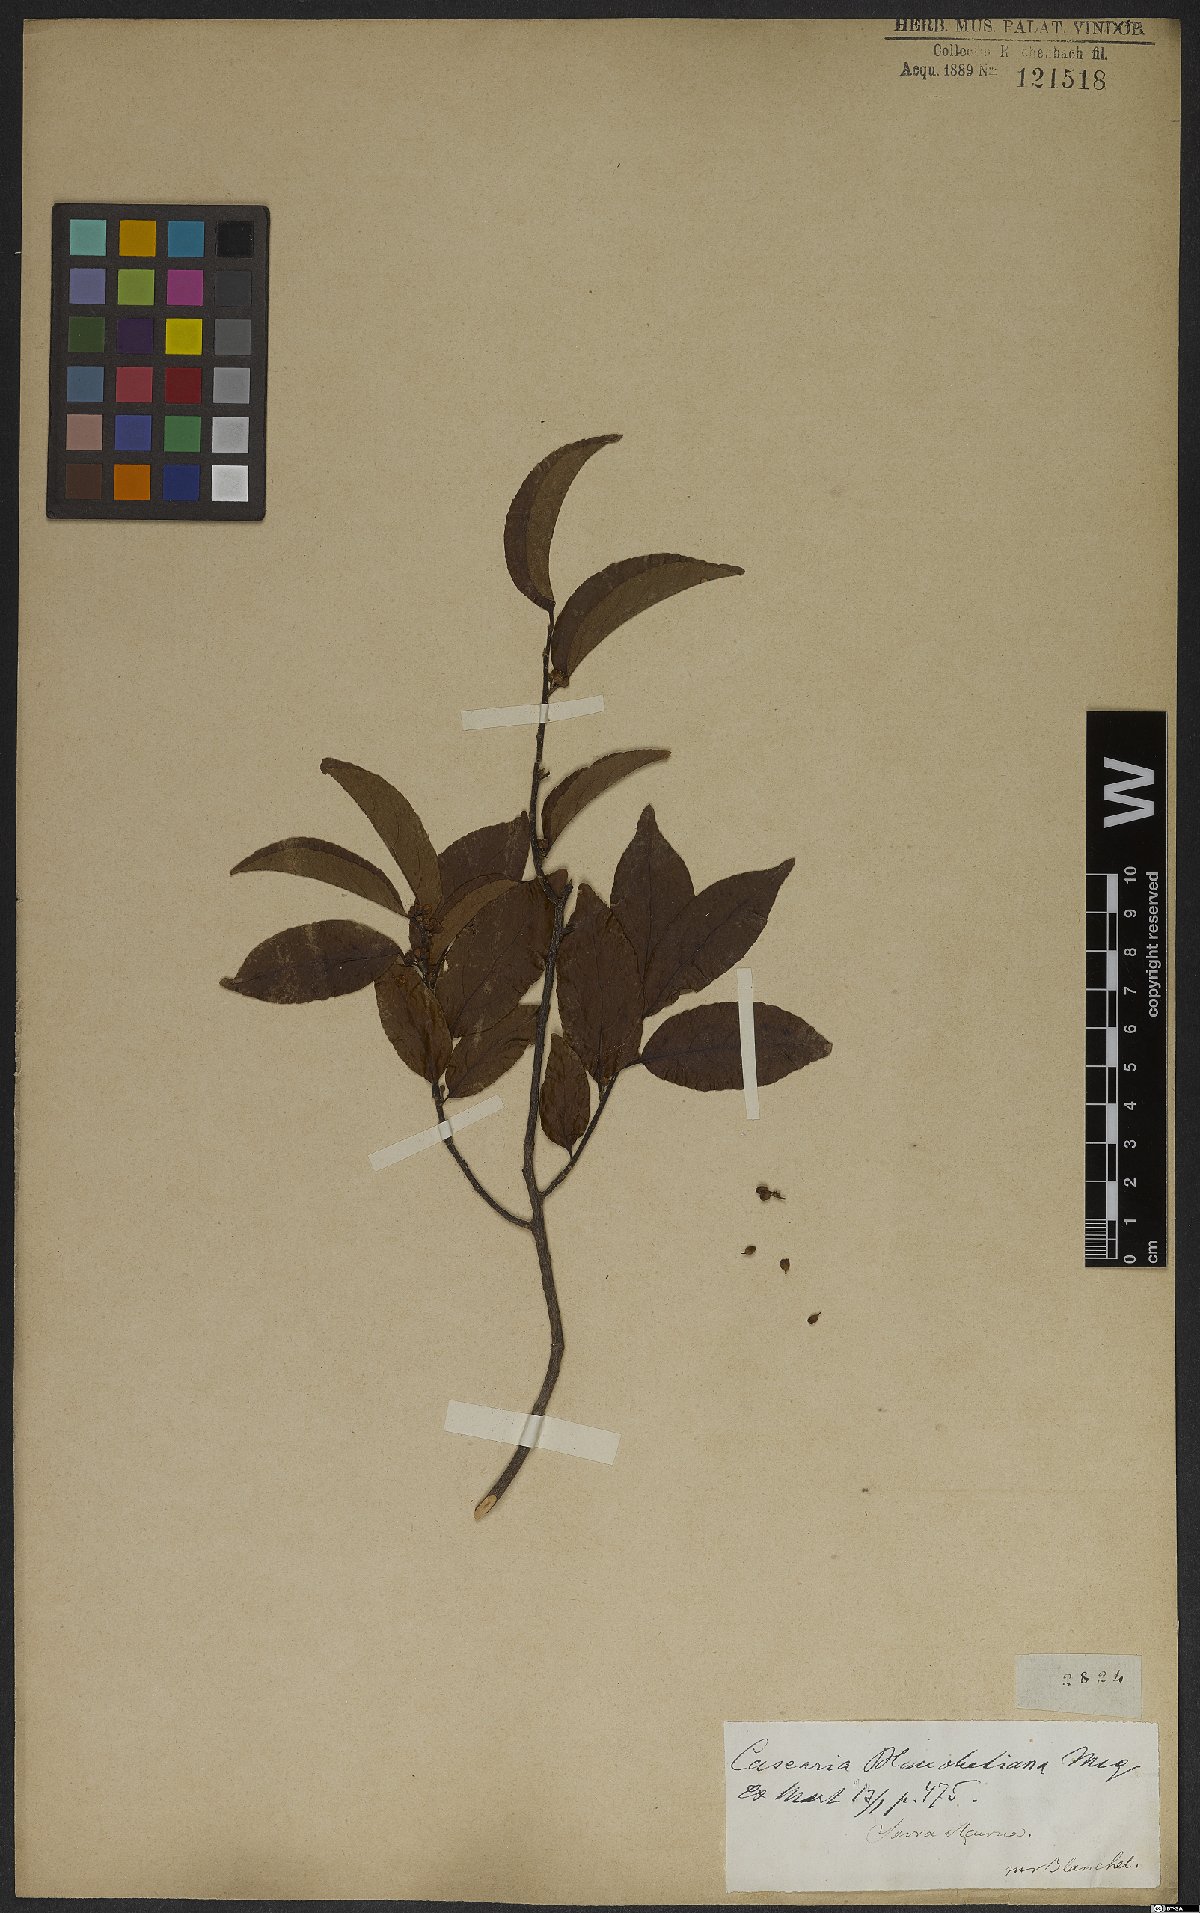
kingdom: Plantae
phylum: Tracheophyta
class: Magnoliopsida
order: Malpighiales
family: Salicaceae
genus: Casearia
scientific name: Casearia ulmifolia
